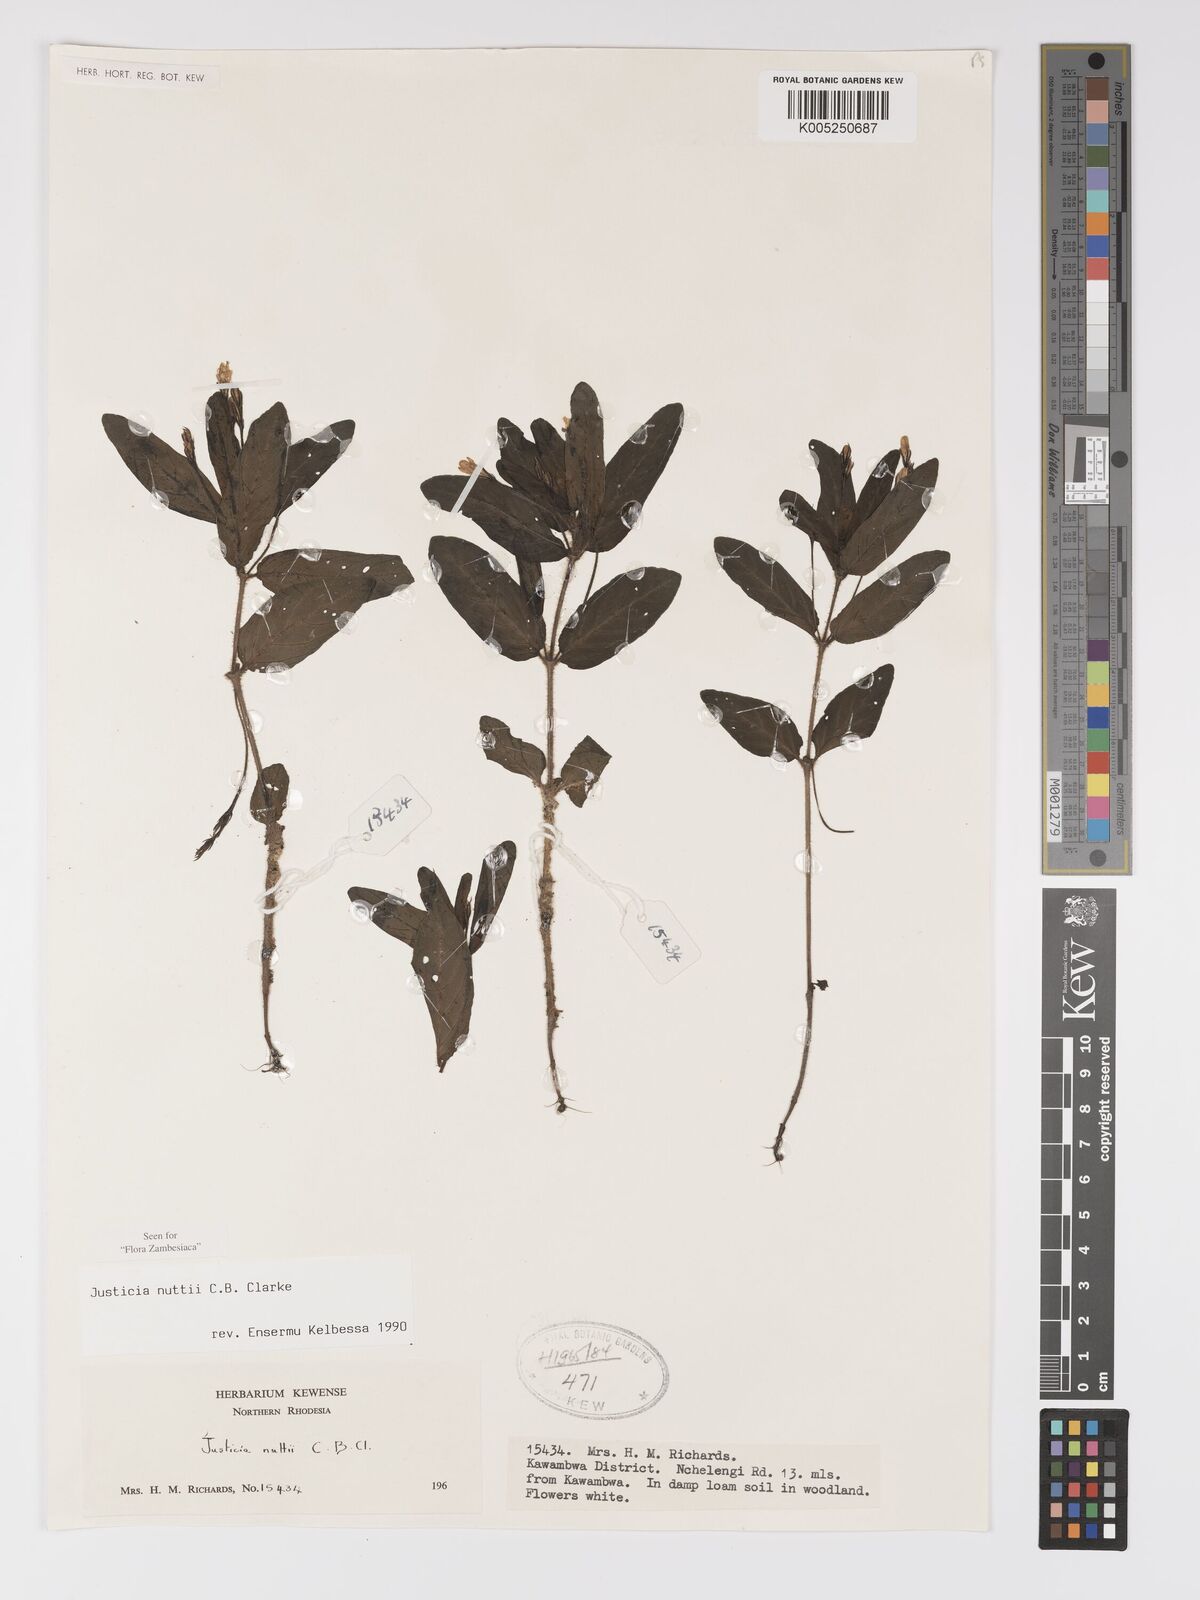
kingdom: Plantae
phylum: Tracheophyta
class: Magnoliopsida
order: Lamiales
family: Acanthaceae
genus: Justicia
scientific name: Justicia nuttii
